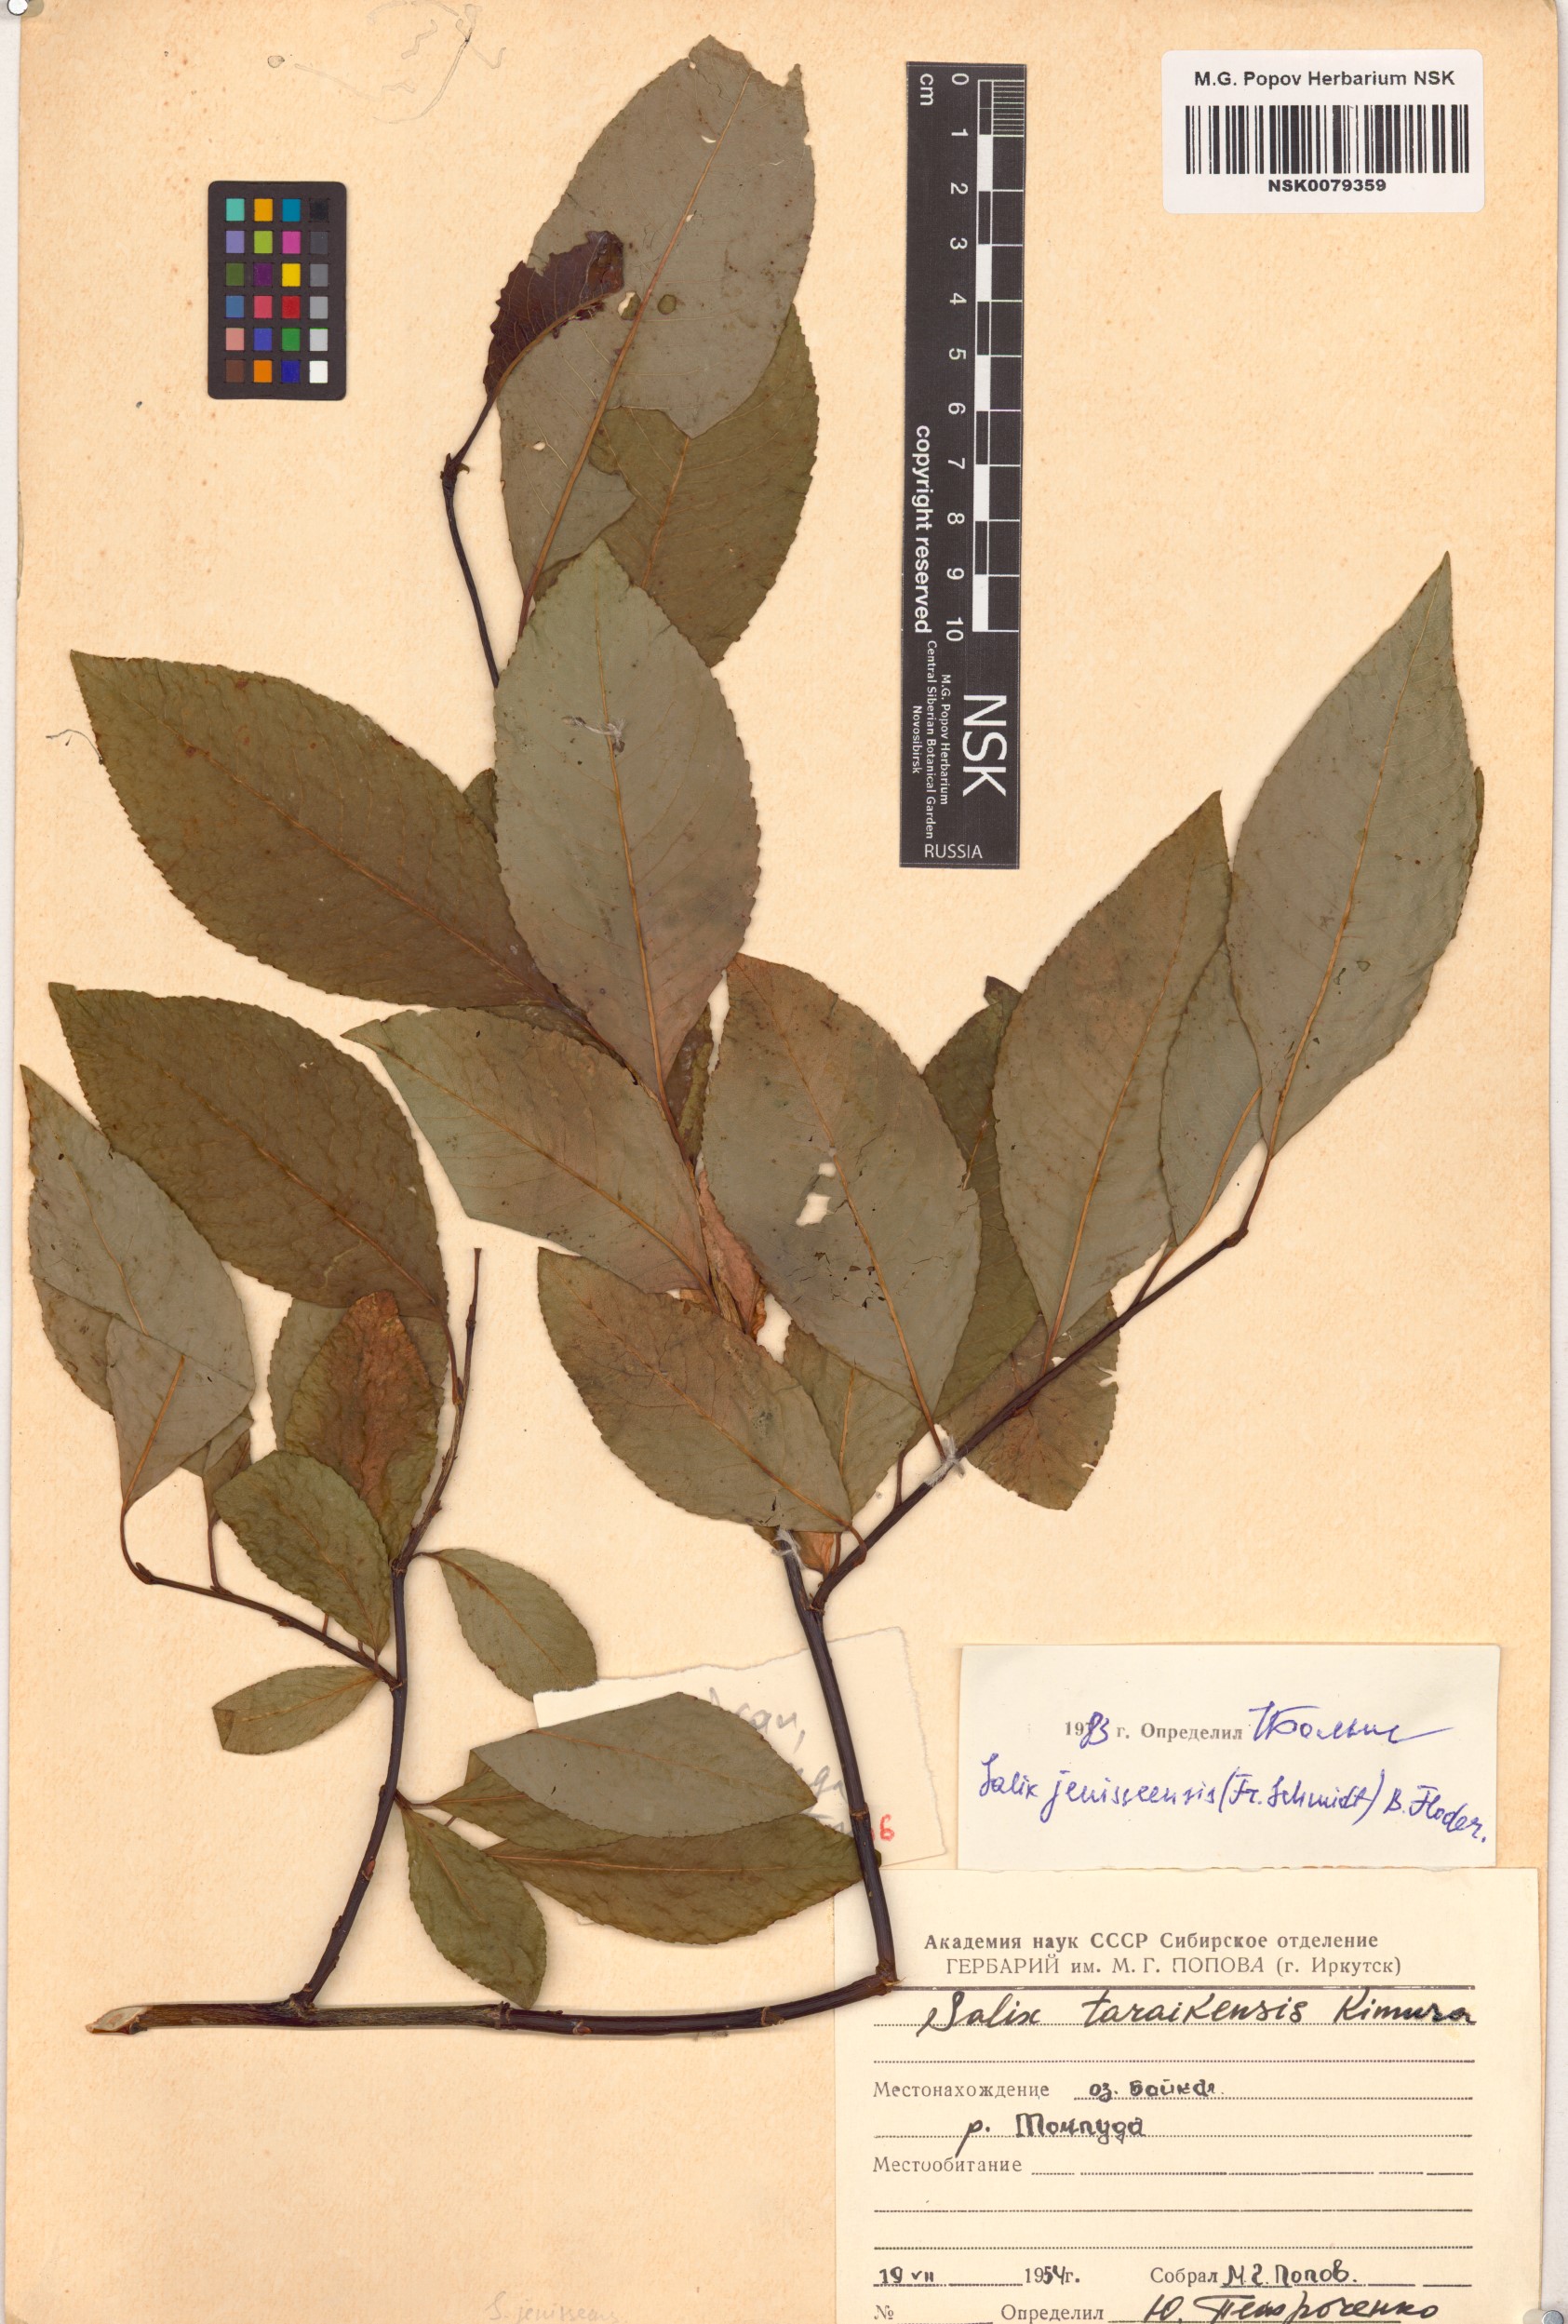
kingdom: Plantae
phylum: Tracheophyta
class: Magnoliopsida
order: Malpighiales
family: Salicaceae
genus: Salix
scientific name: Salix jenisseensis
